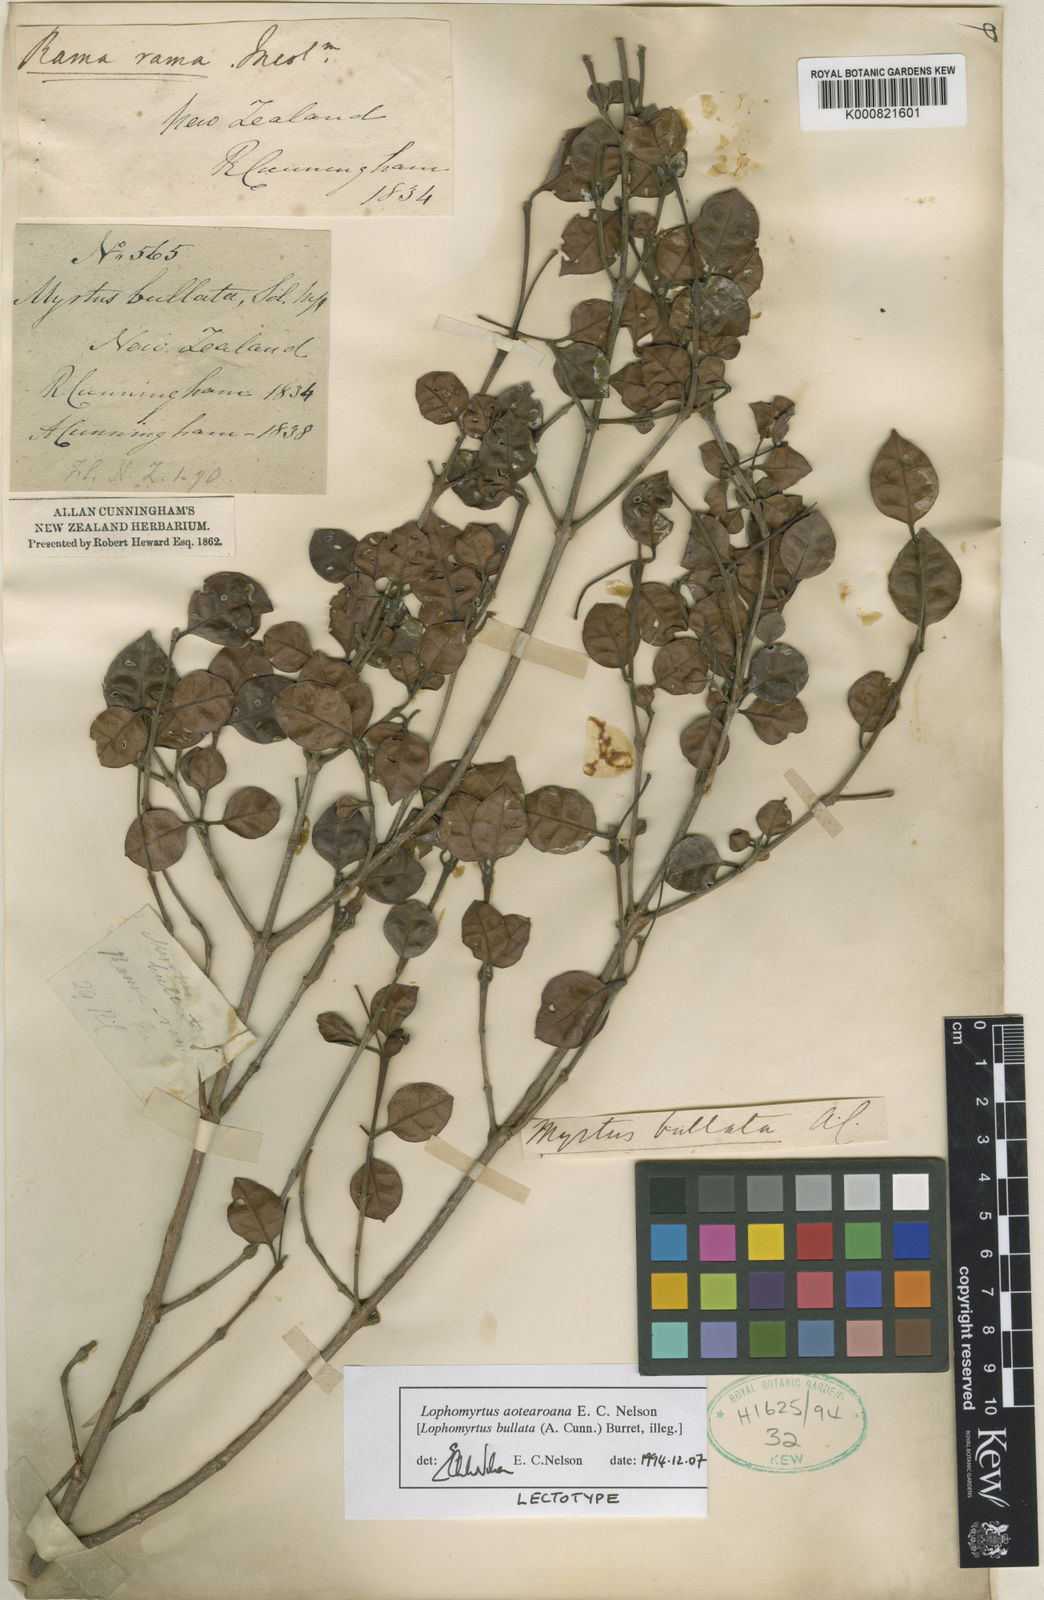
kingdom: Plantae
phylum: Tracheophyta
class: Magnoliopsida
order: Myrtales
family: Myrtaceae
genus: Lophomyrtus
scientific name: Lophomyrtus bullata
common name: Rama rama
